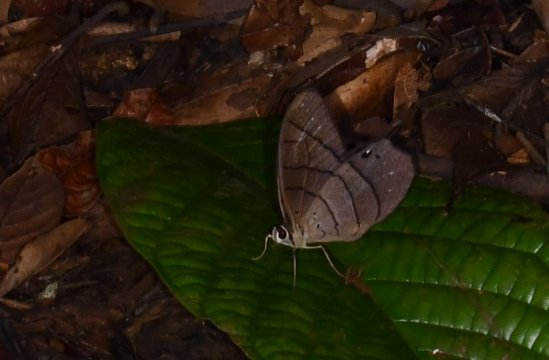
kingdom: Animalia
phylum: Arthropoda
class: Insecta
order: Lepidoptera
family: Nymphalidae
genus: Pierella
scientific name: Pierella luna
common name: Moon Satyr
